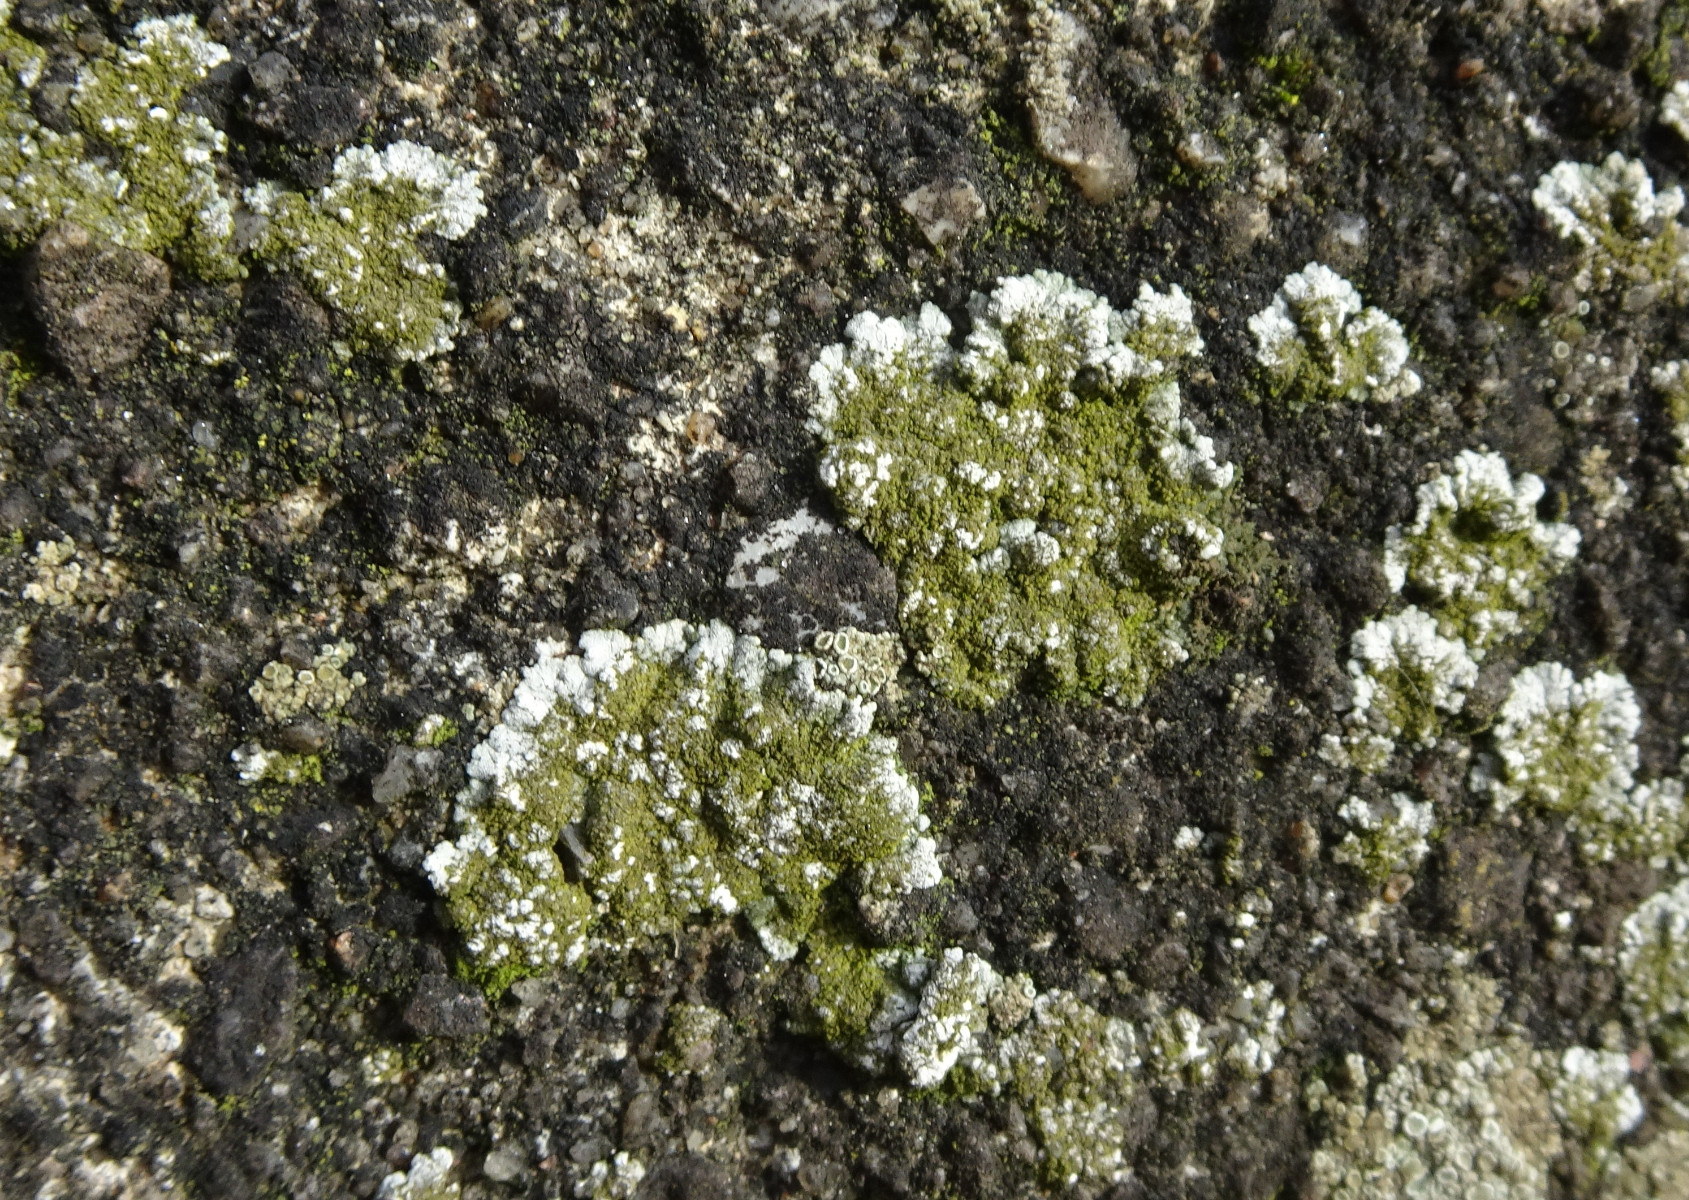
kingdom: Fungi
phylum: Ascomycota
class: Lecanoromycetes
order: Teloschistales
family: Teloschistaceae
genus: Kuettlingeria
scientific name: Kuettlingeria teicholyta
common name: grå orangelav
